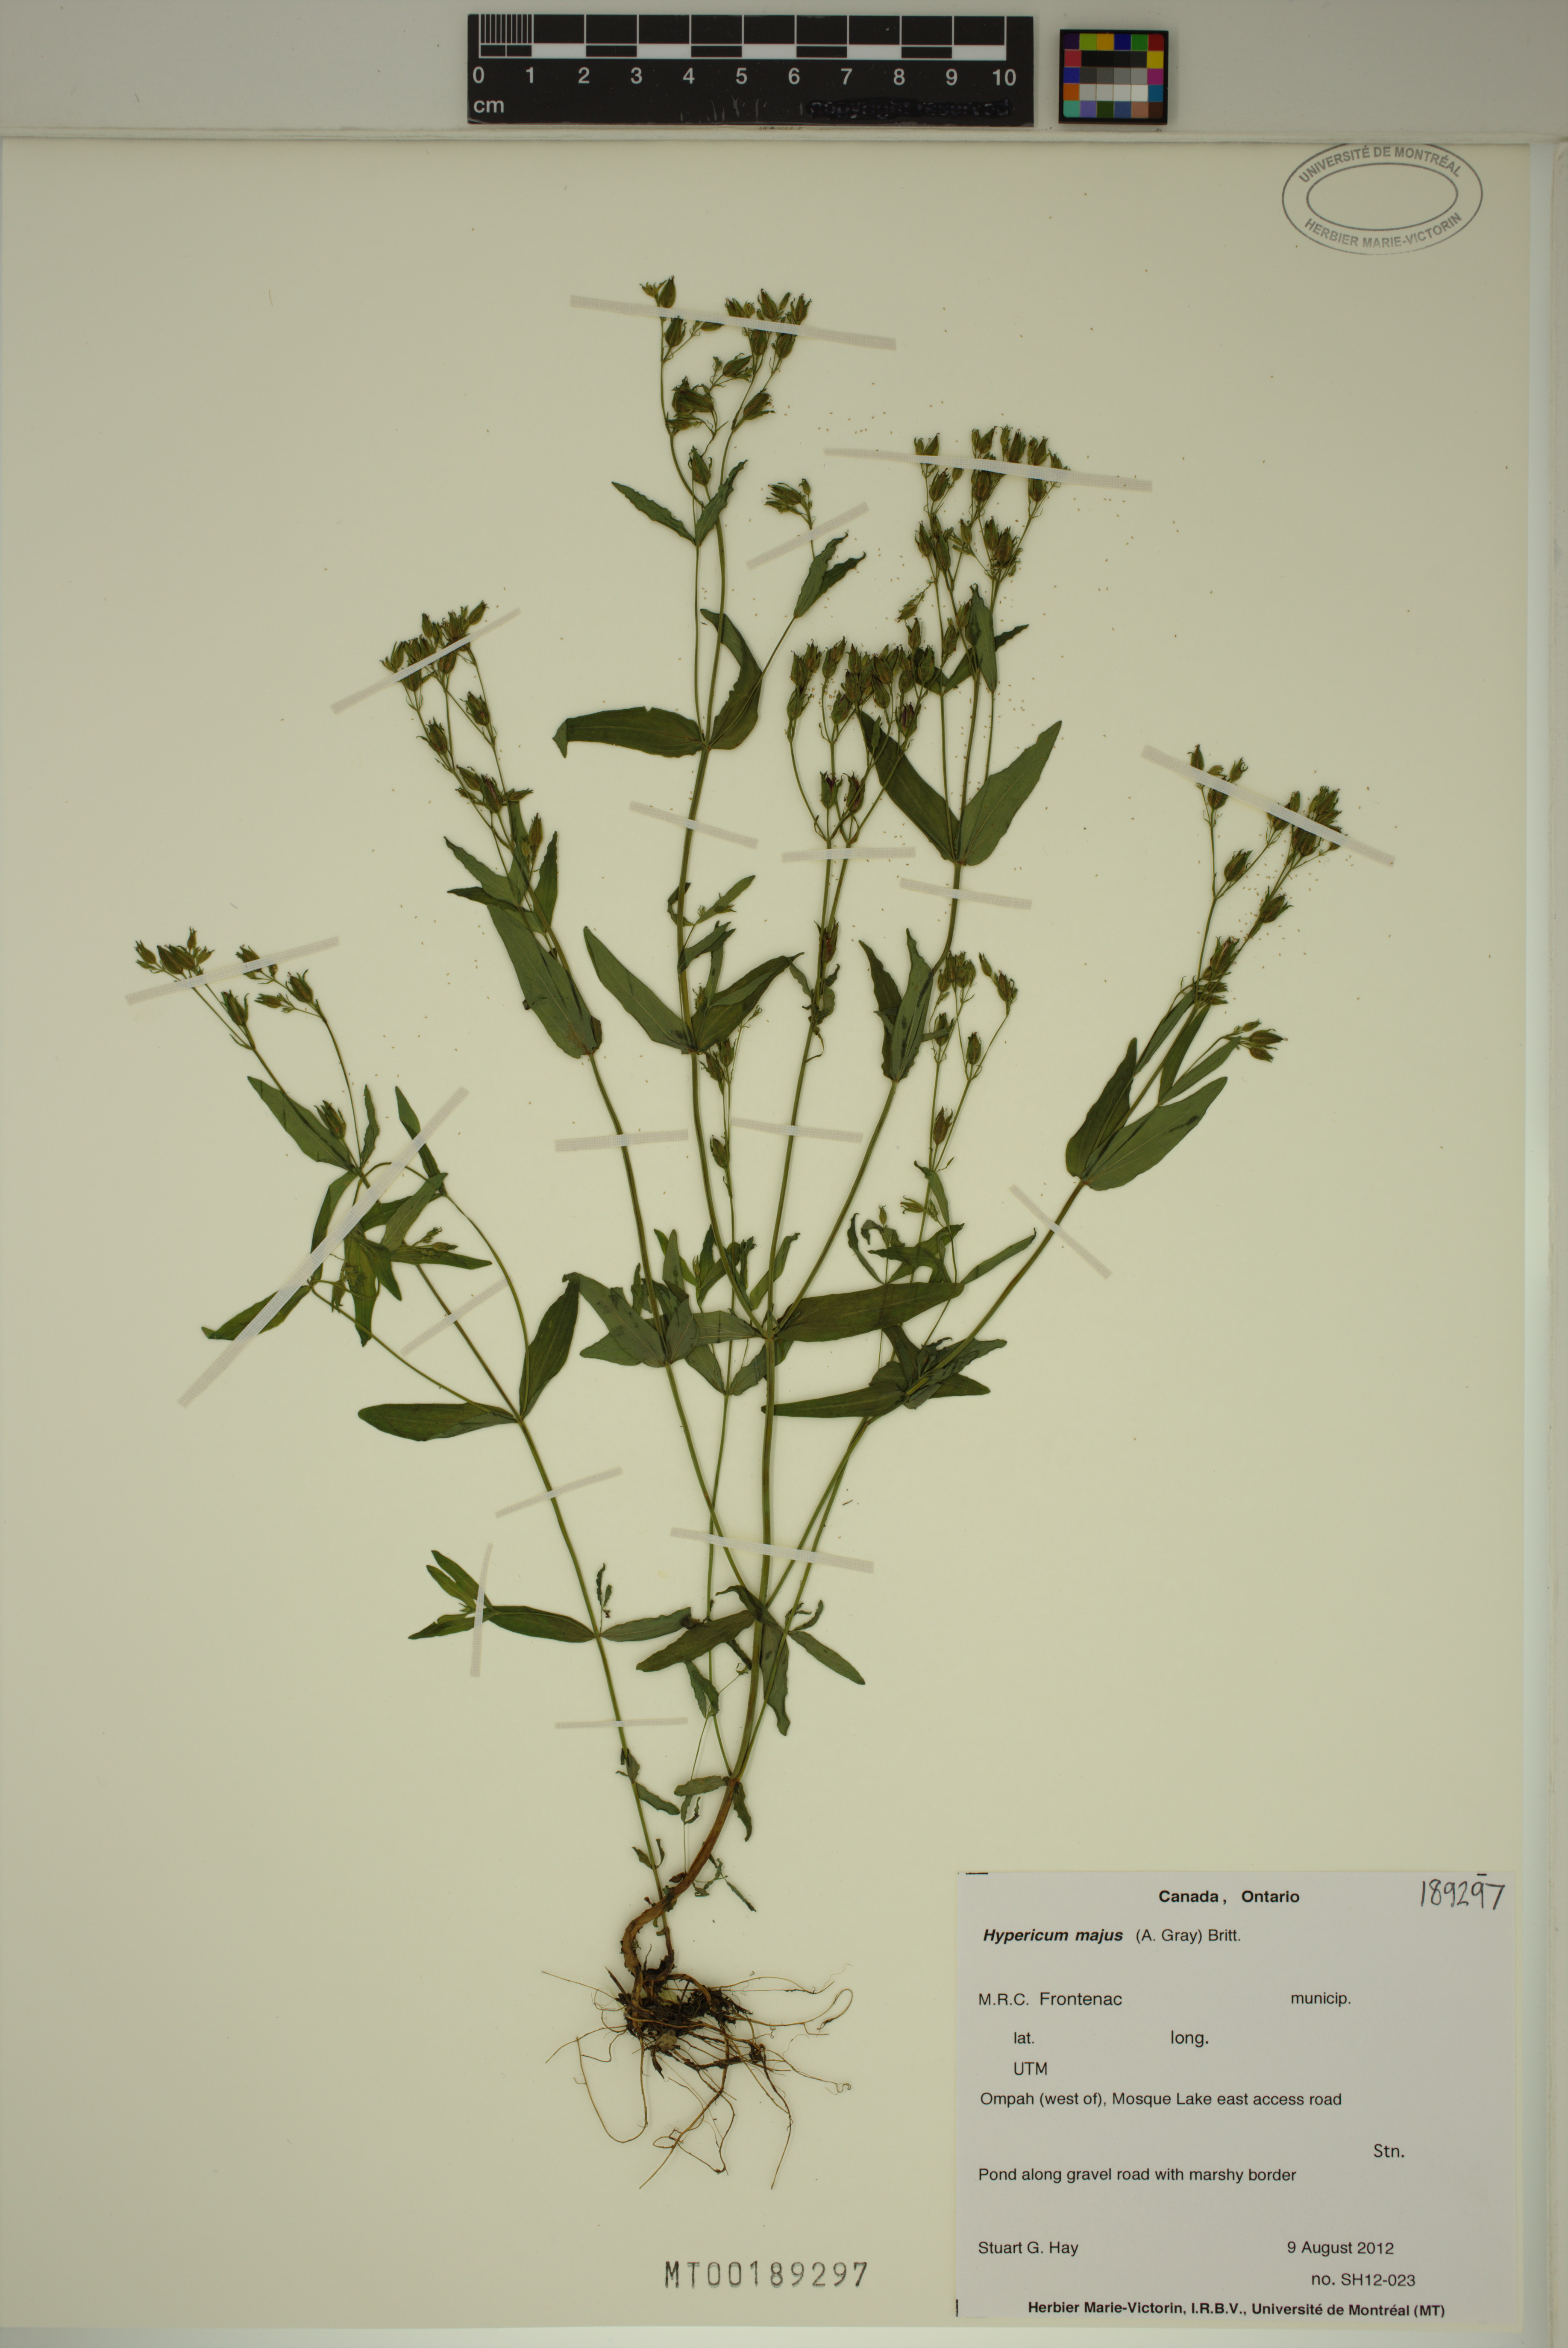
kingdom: Plantae
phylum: Tracheophyta
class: Magnoliopsida
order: Malpighiales
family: Hypericaceae
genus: Hypericum
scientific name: Hypericum majus
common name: Greater canadian st. john's-wort
